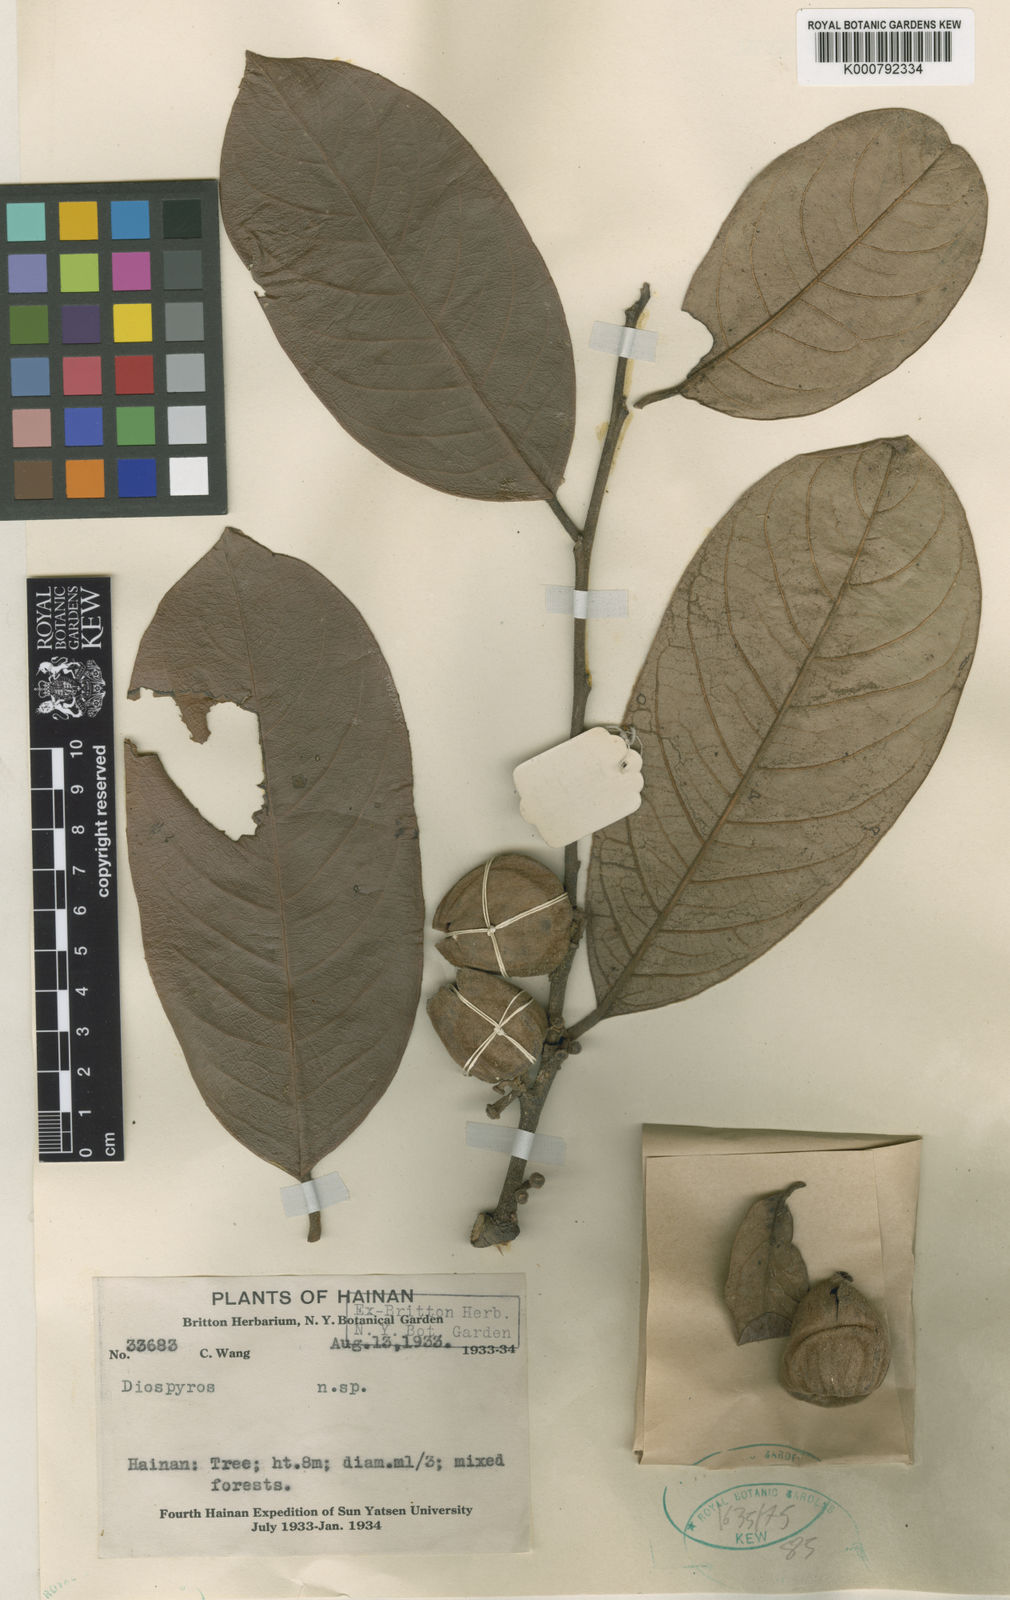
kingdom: Plantae
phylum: Tracheophyta
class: Magnoliopsida
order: Ericales
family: Ebenaceae
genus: Diospyros
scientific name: Diospyros inflata
